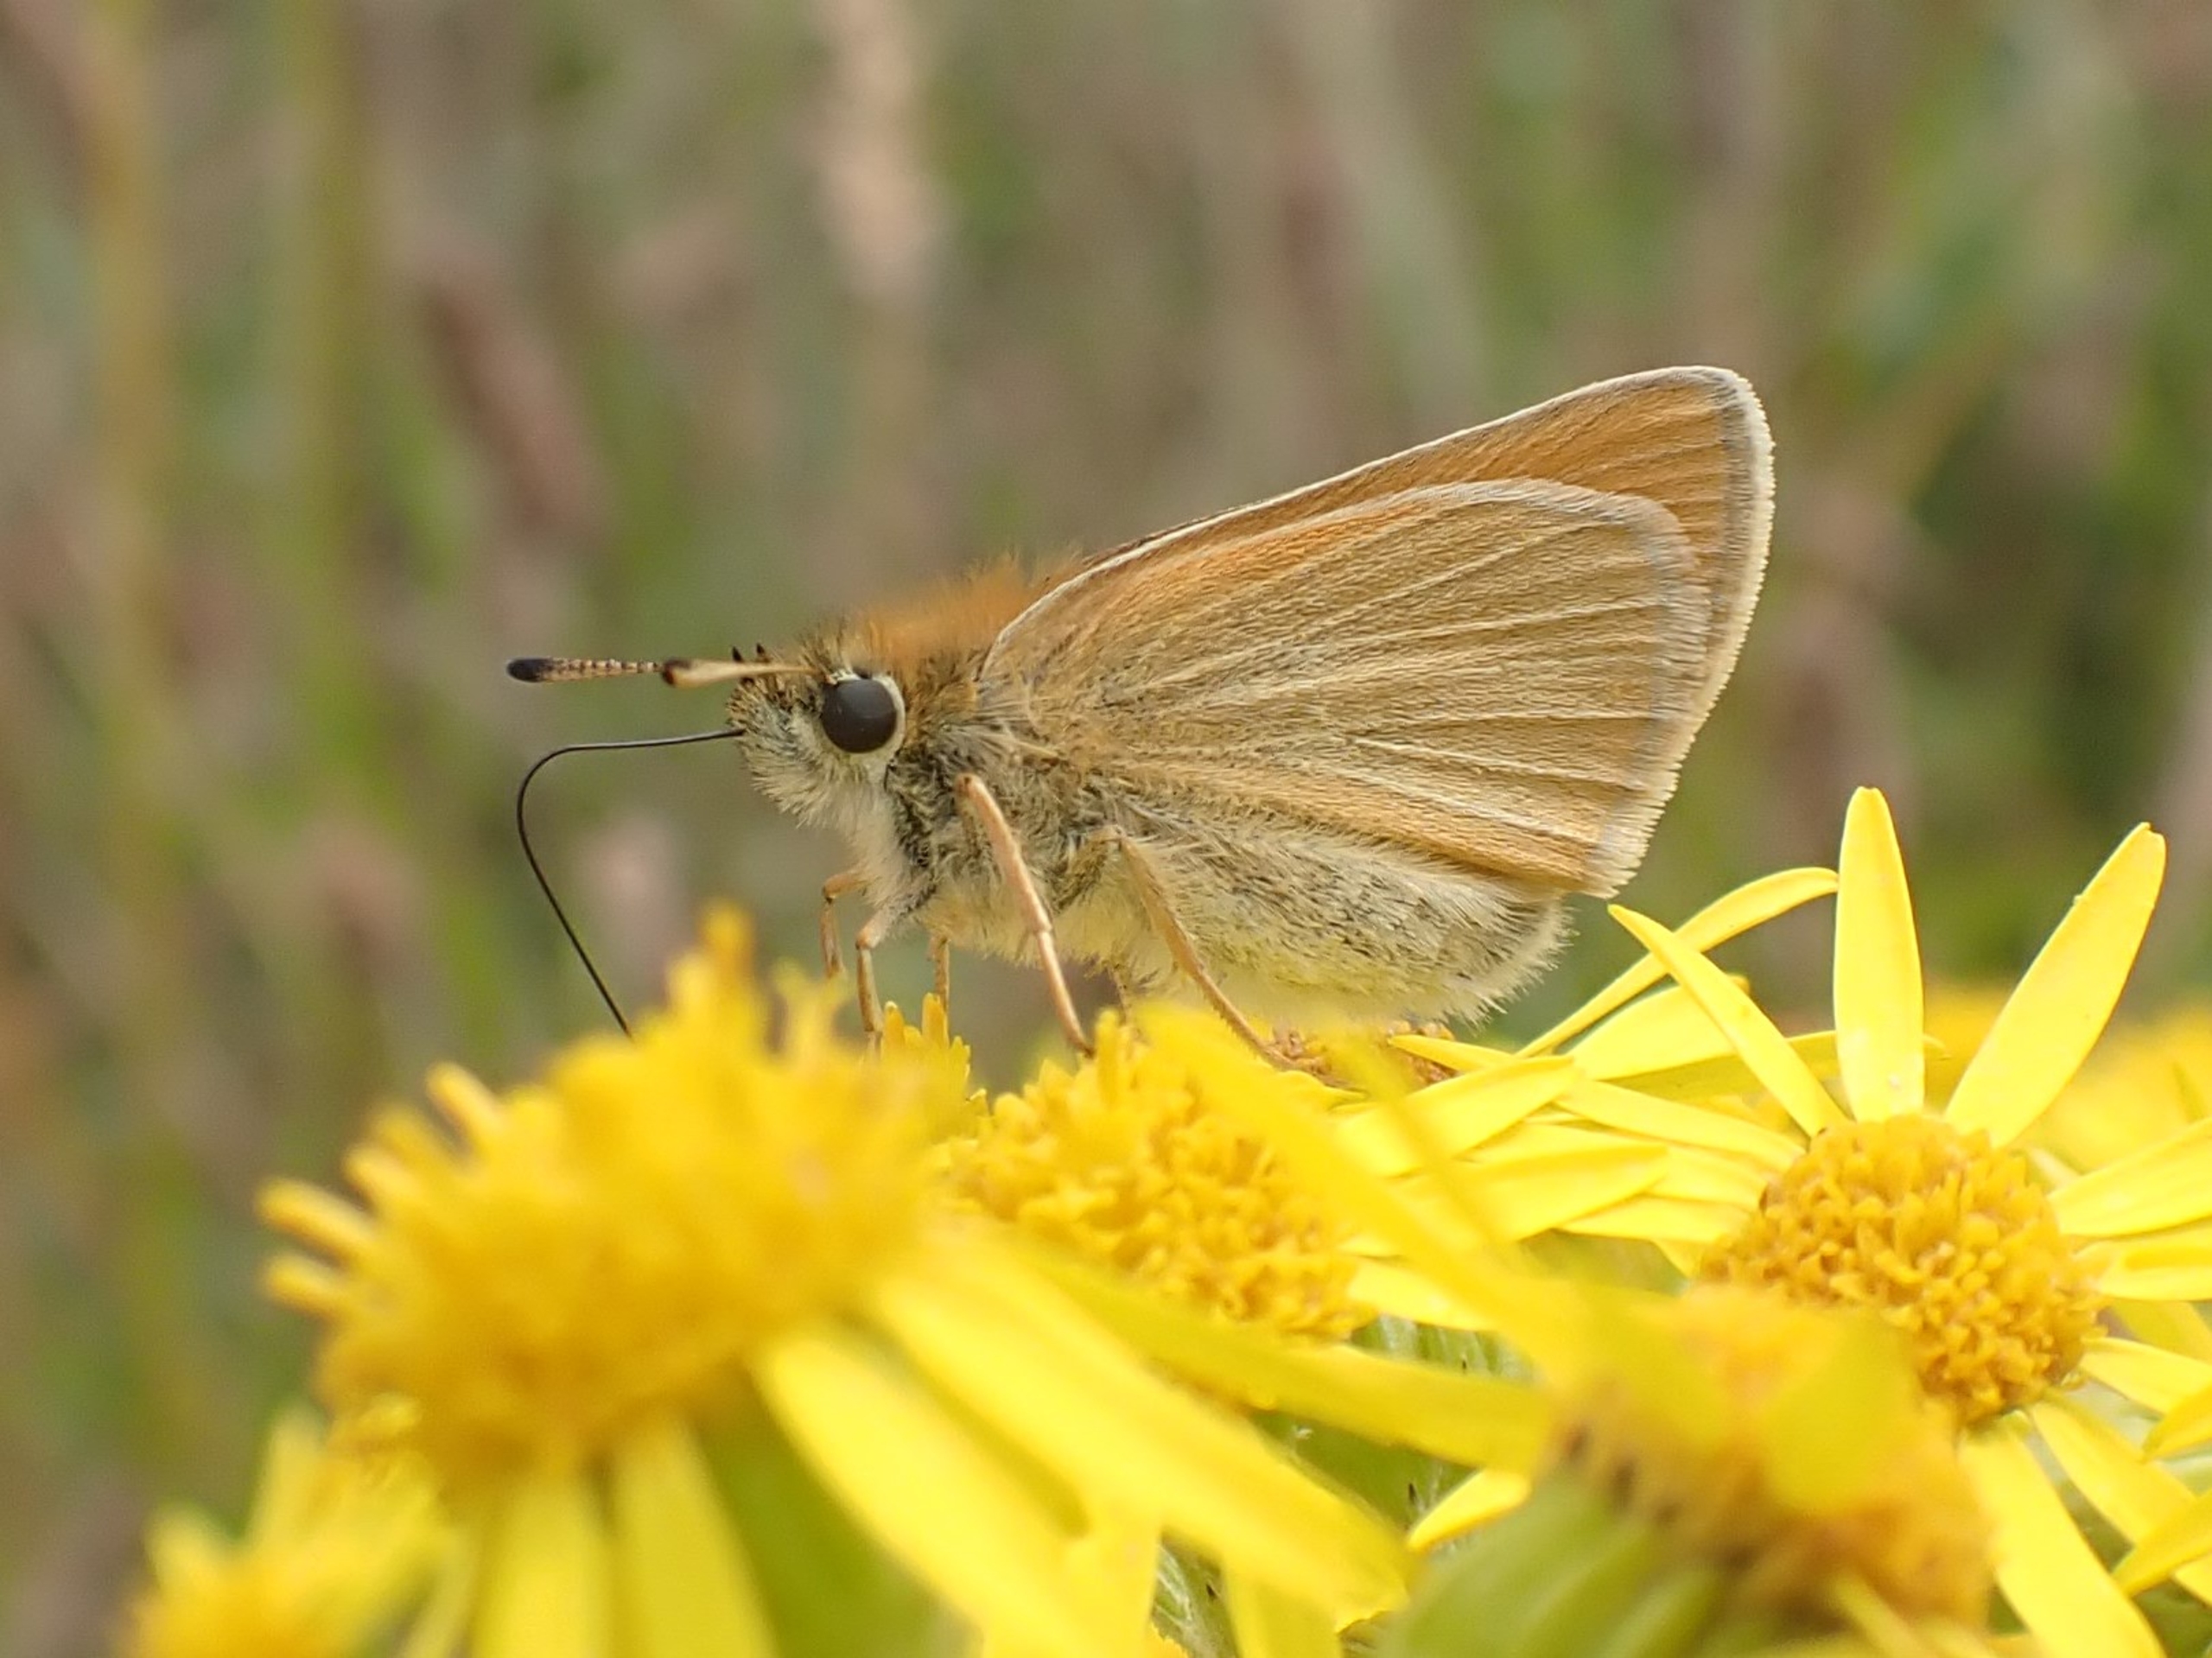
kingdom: Animalia
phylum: Arthropoda
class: Insecta
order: Lepidoptera
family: Hesperiidae
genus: Thymelicus
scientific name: Thymelicus lineola
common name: Stregbredpande
